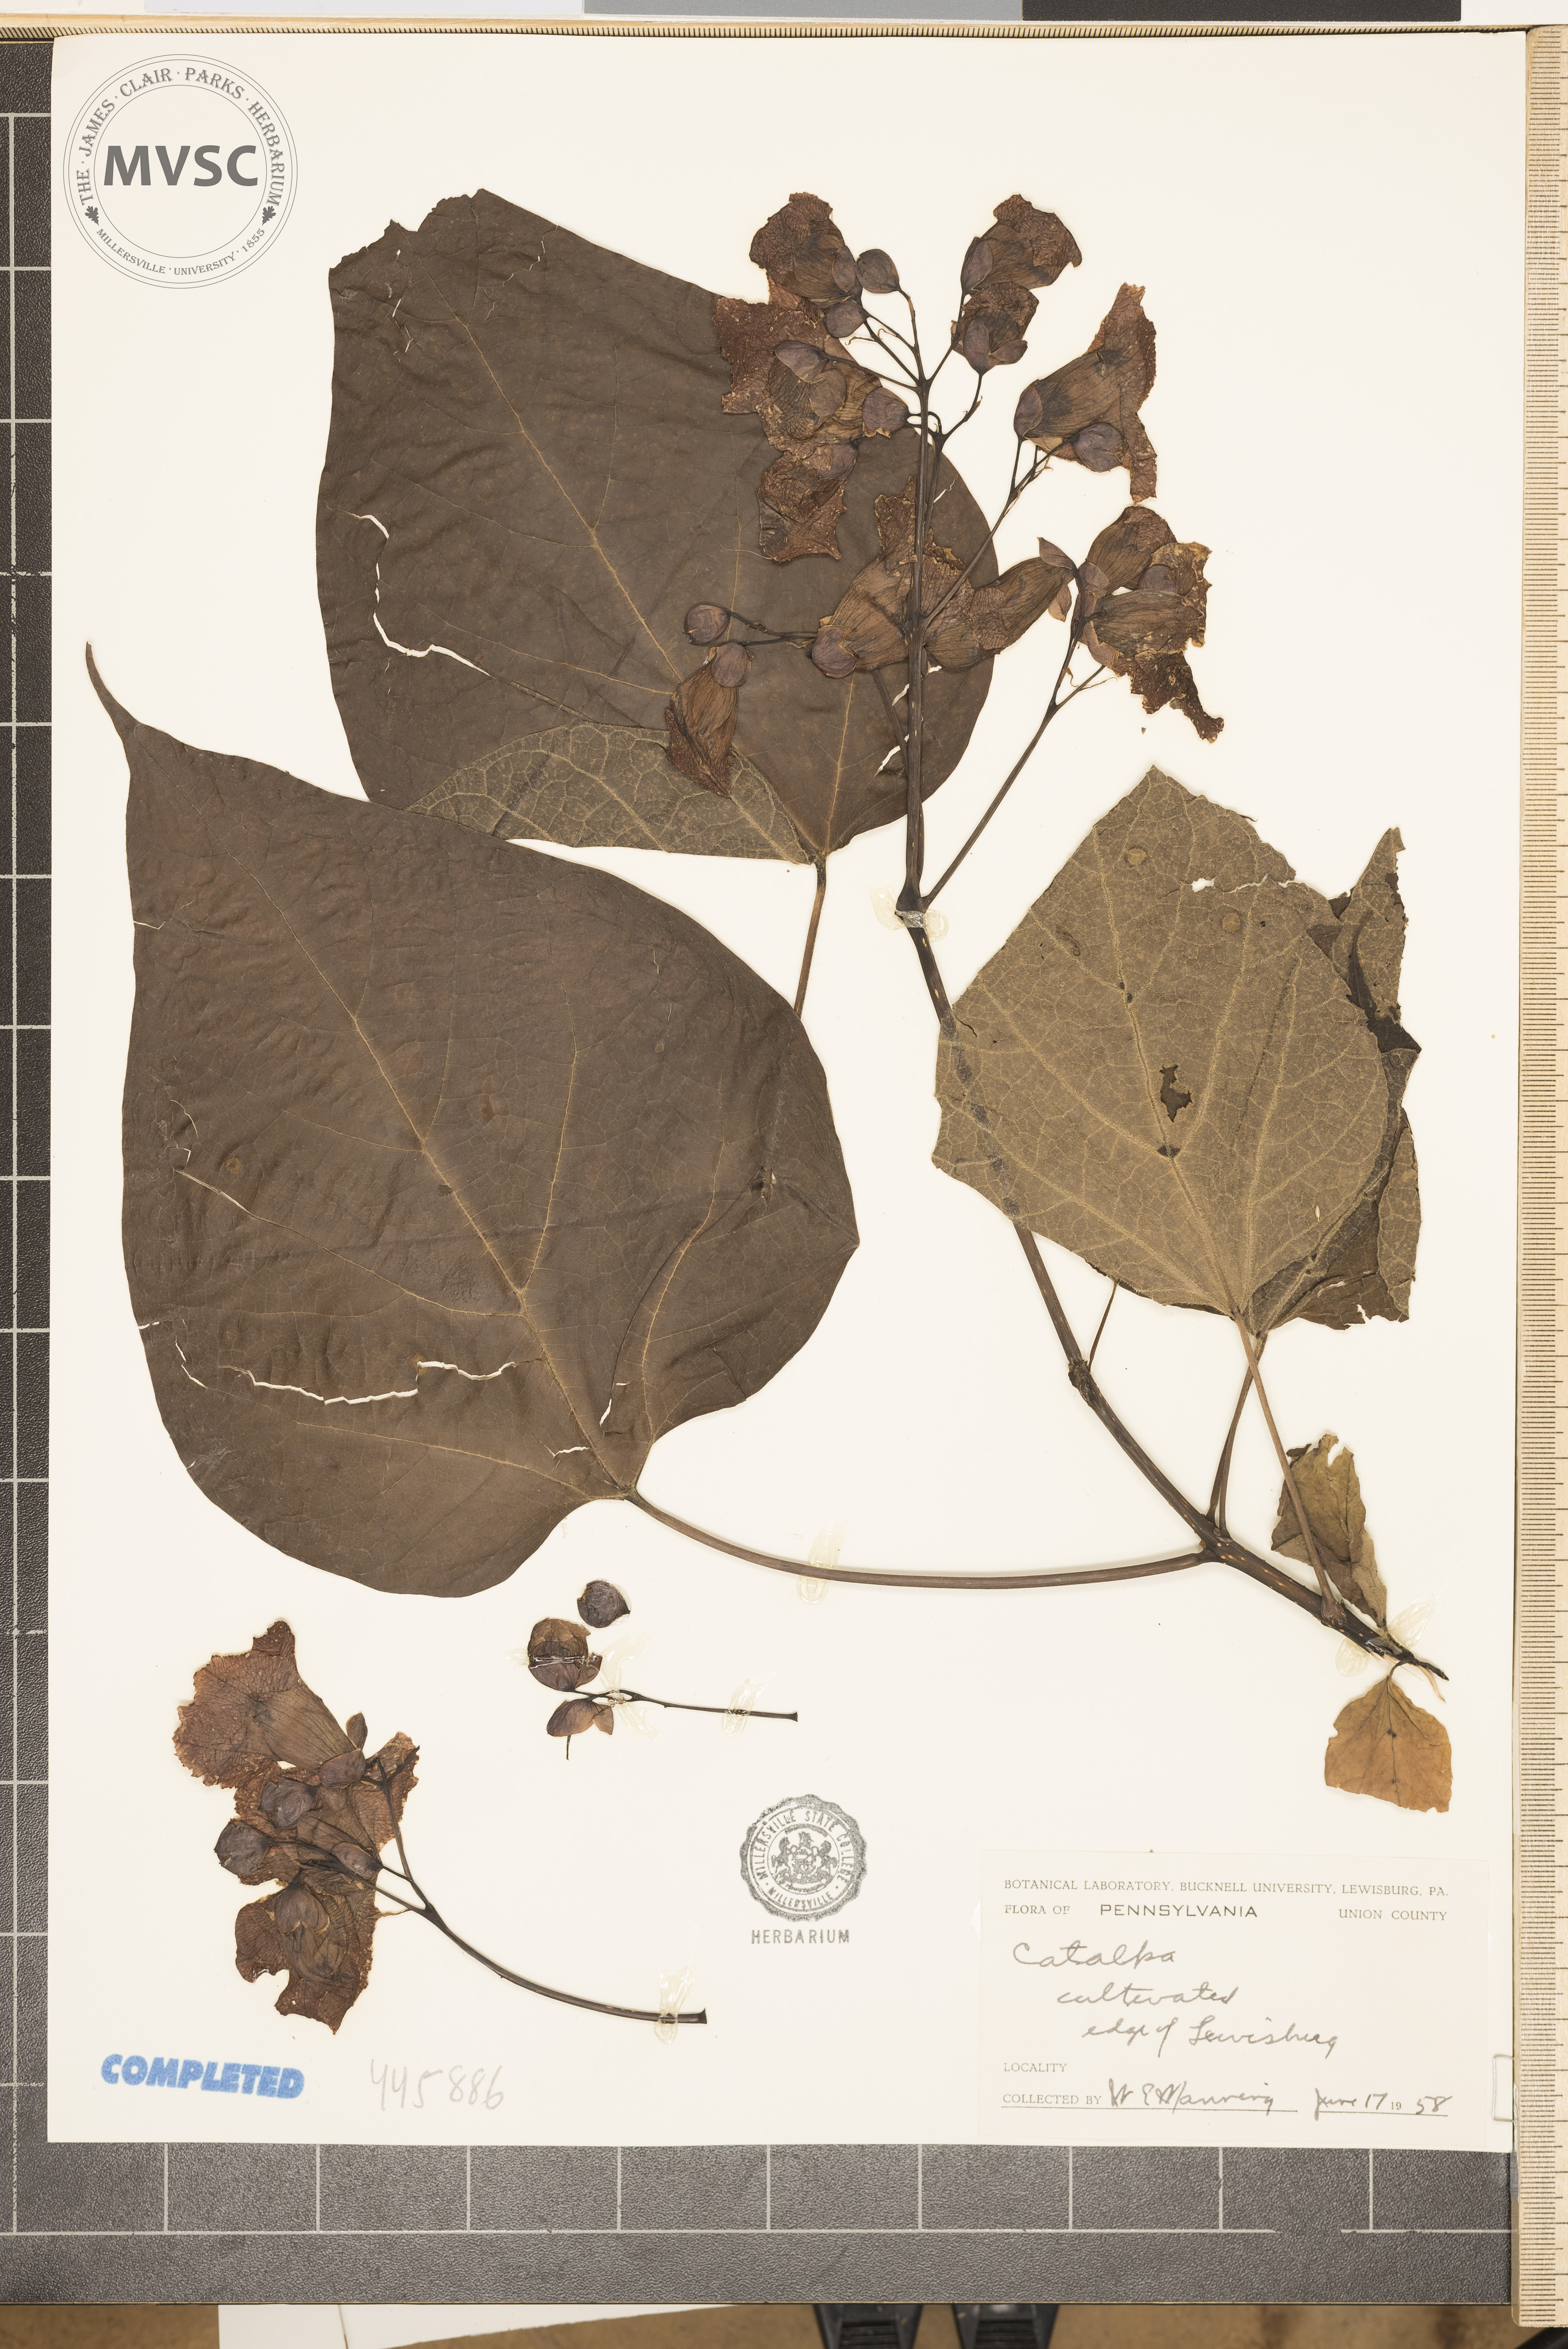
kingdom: Plantae
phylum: Tracheophyta
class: Magnoliopsida
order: Lamiales
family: Bignoniaceae
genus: Catalpa
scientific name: Catalpa
